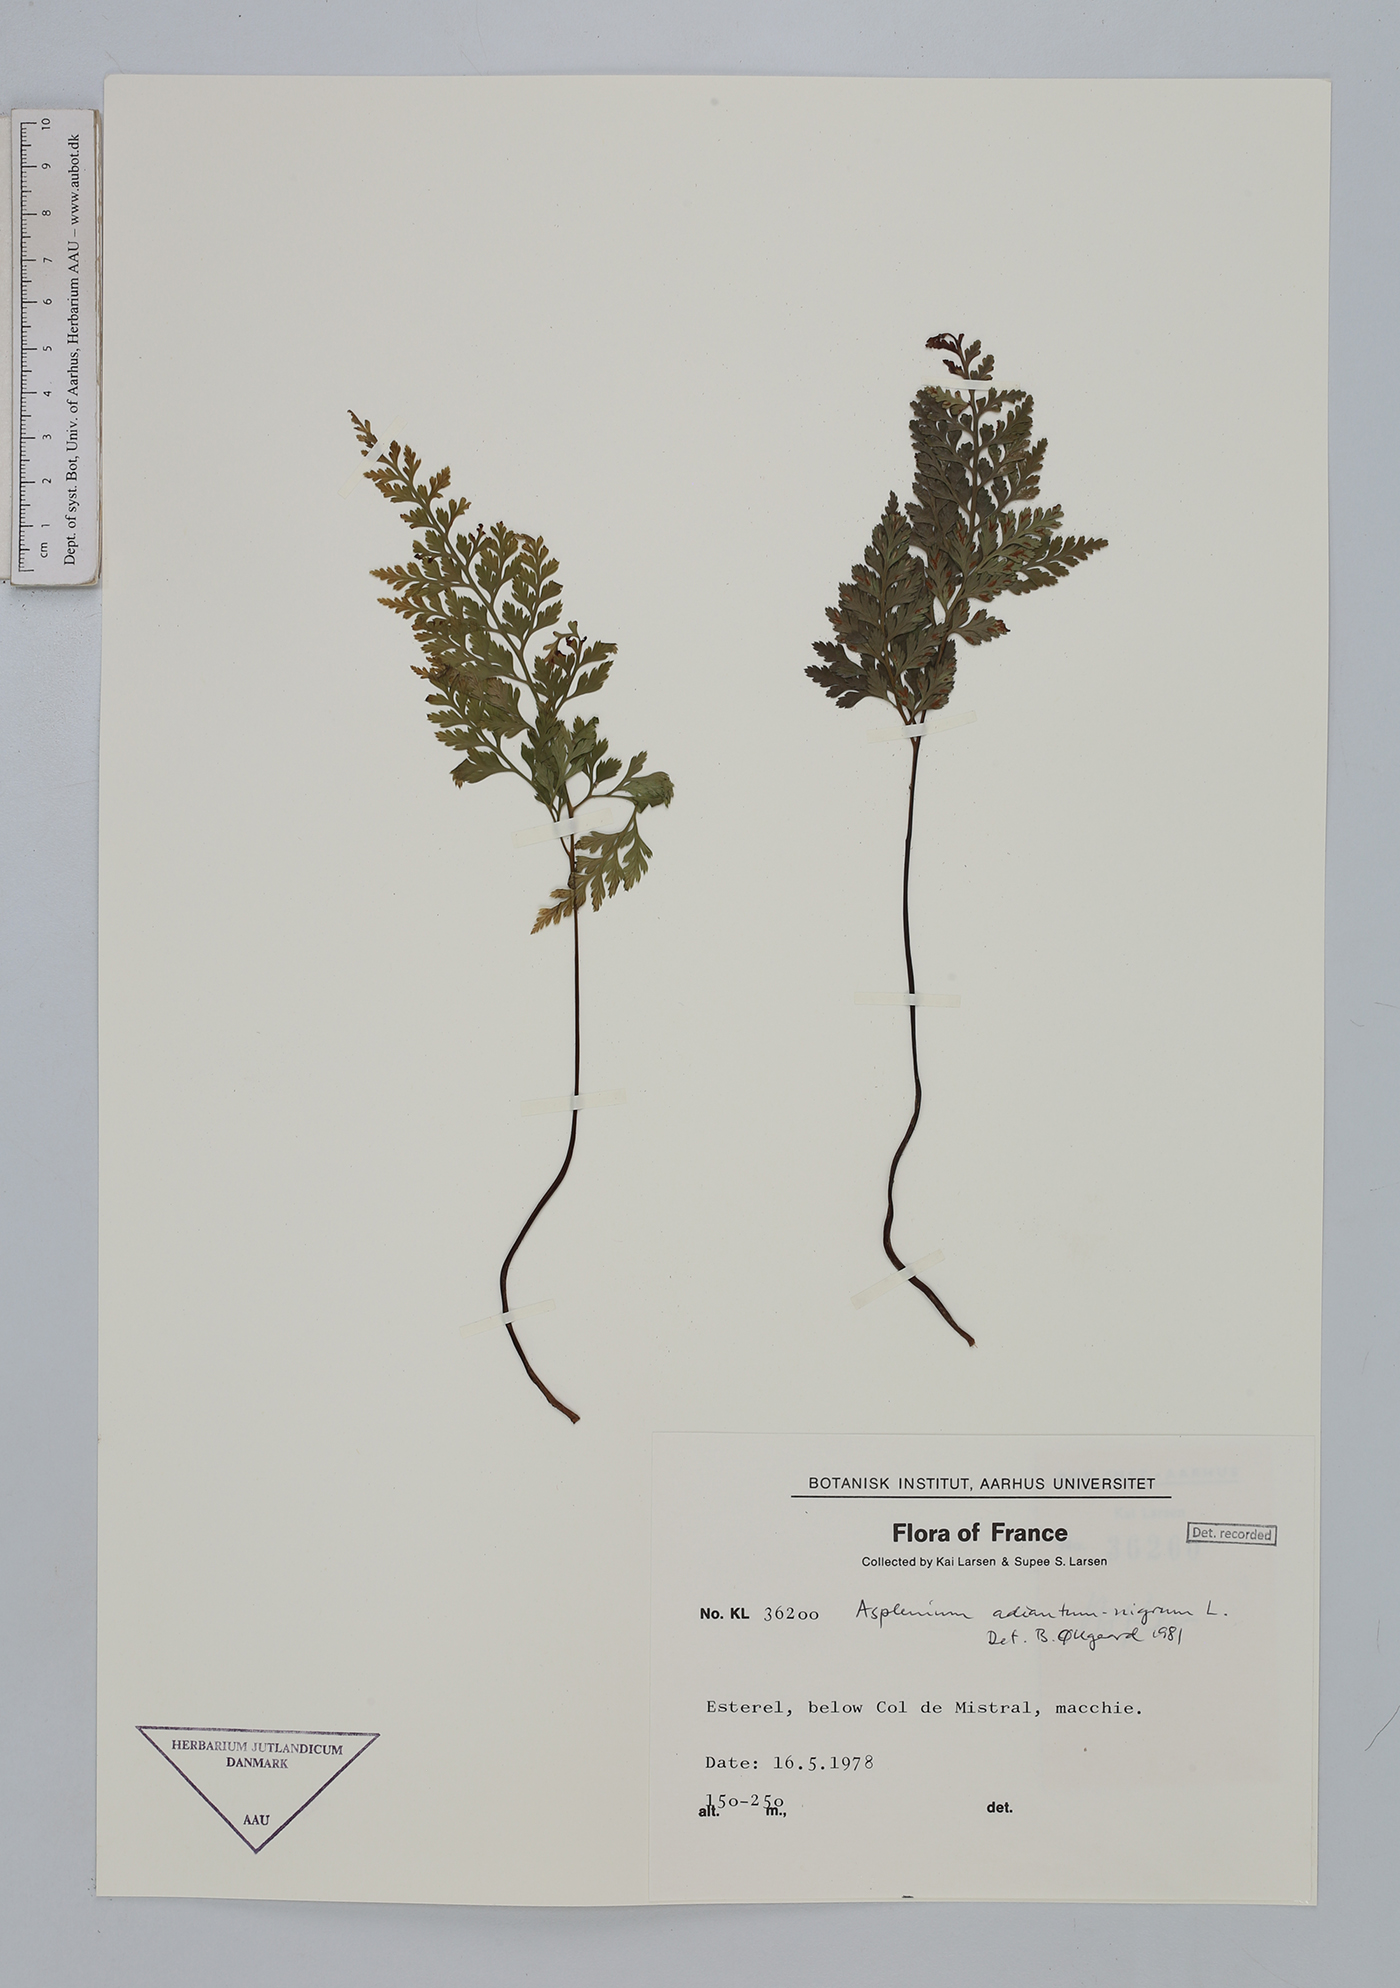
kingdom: Plantae
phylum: Tracheophyta
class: Polypodiopsida
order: Polypodiales
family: Aspleniaceae
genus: Asplenium
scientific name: Asplenium adiantum-nigrum
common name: Black spleenwort
